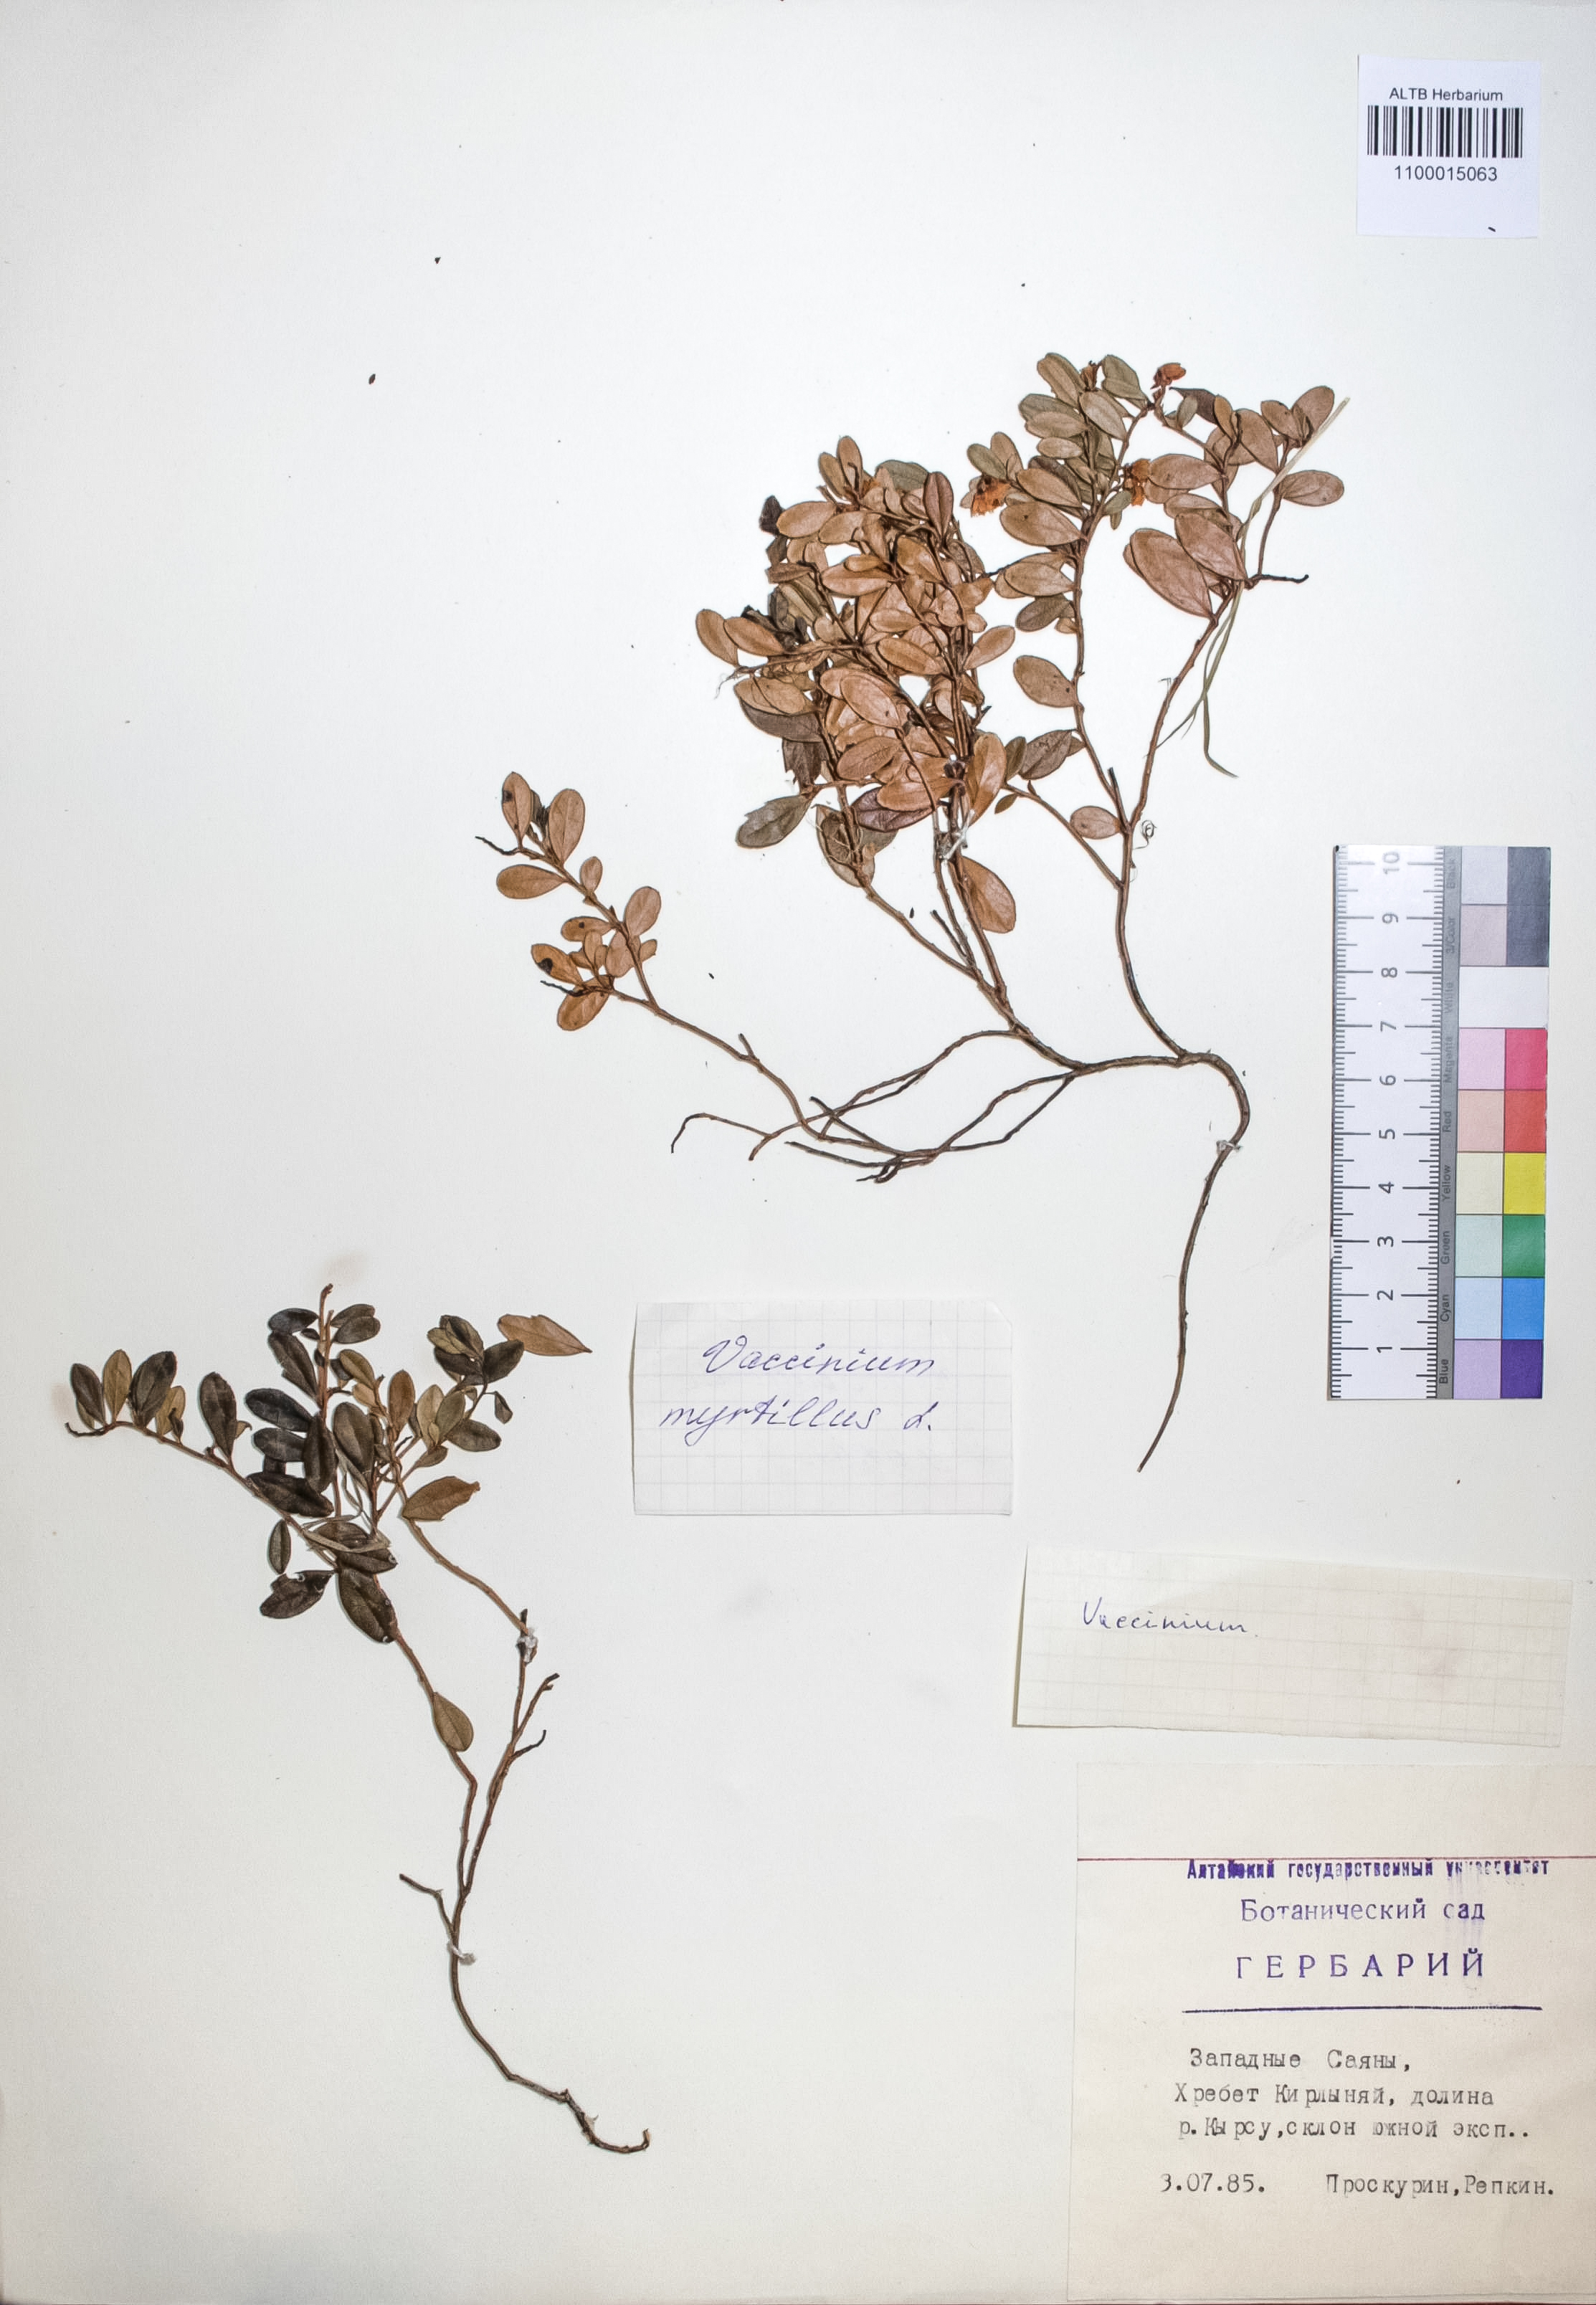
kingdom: Plantae
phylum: Tracheophyta
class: Magnoliopsida
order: Ericales
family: Ericaceae
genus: Vaccinium
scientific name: Vaccinium myrtillus
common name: Bilberry
